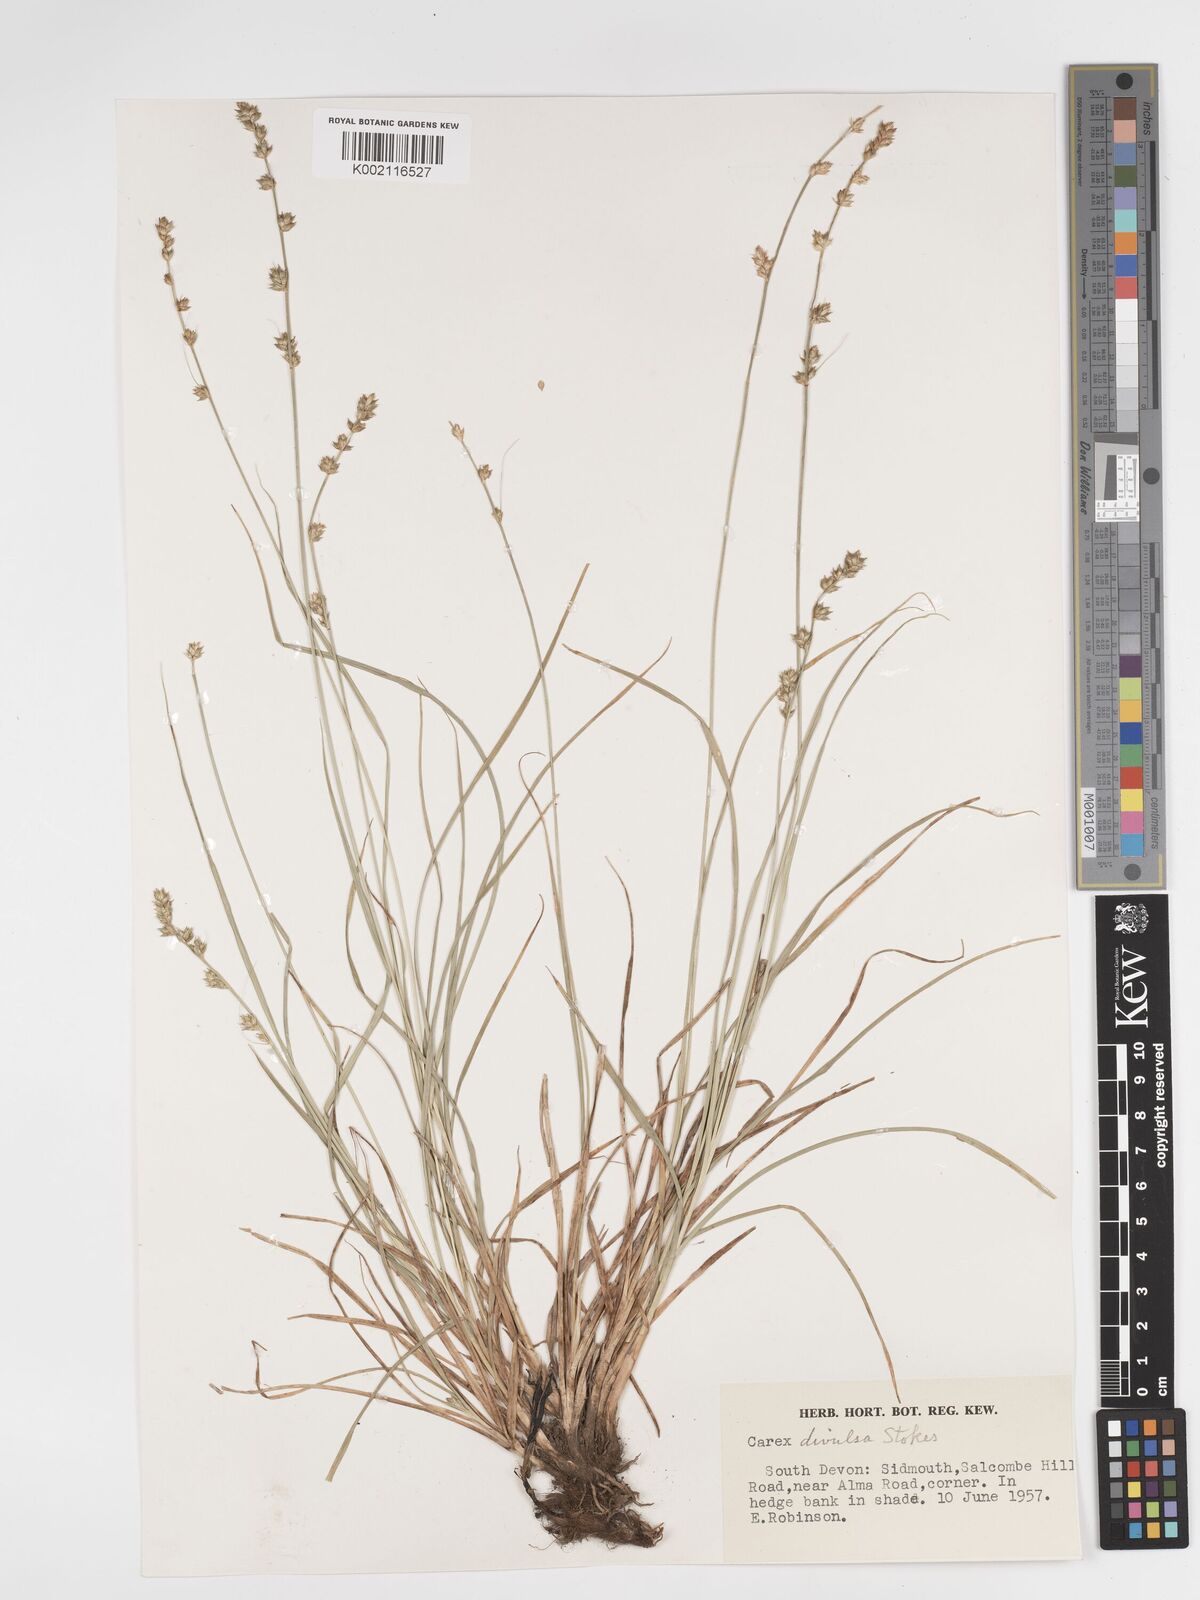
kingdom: Plantae
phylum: Tracheophyta
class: Liliopsida
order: Poales
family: Cyperaceae
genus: Carex
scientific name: Carex divulsa
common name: Grassland sedge
